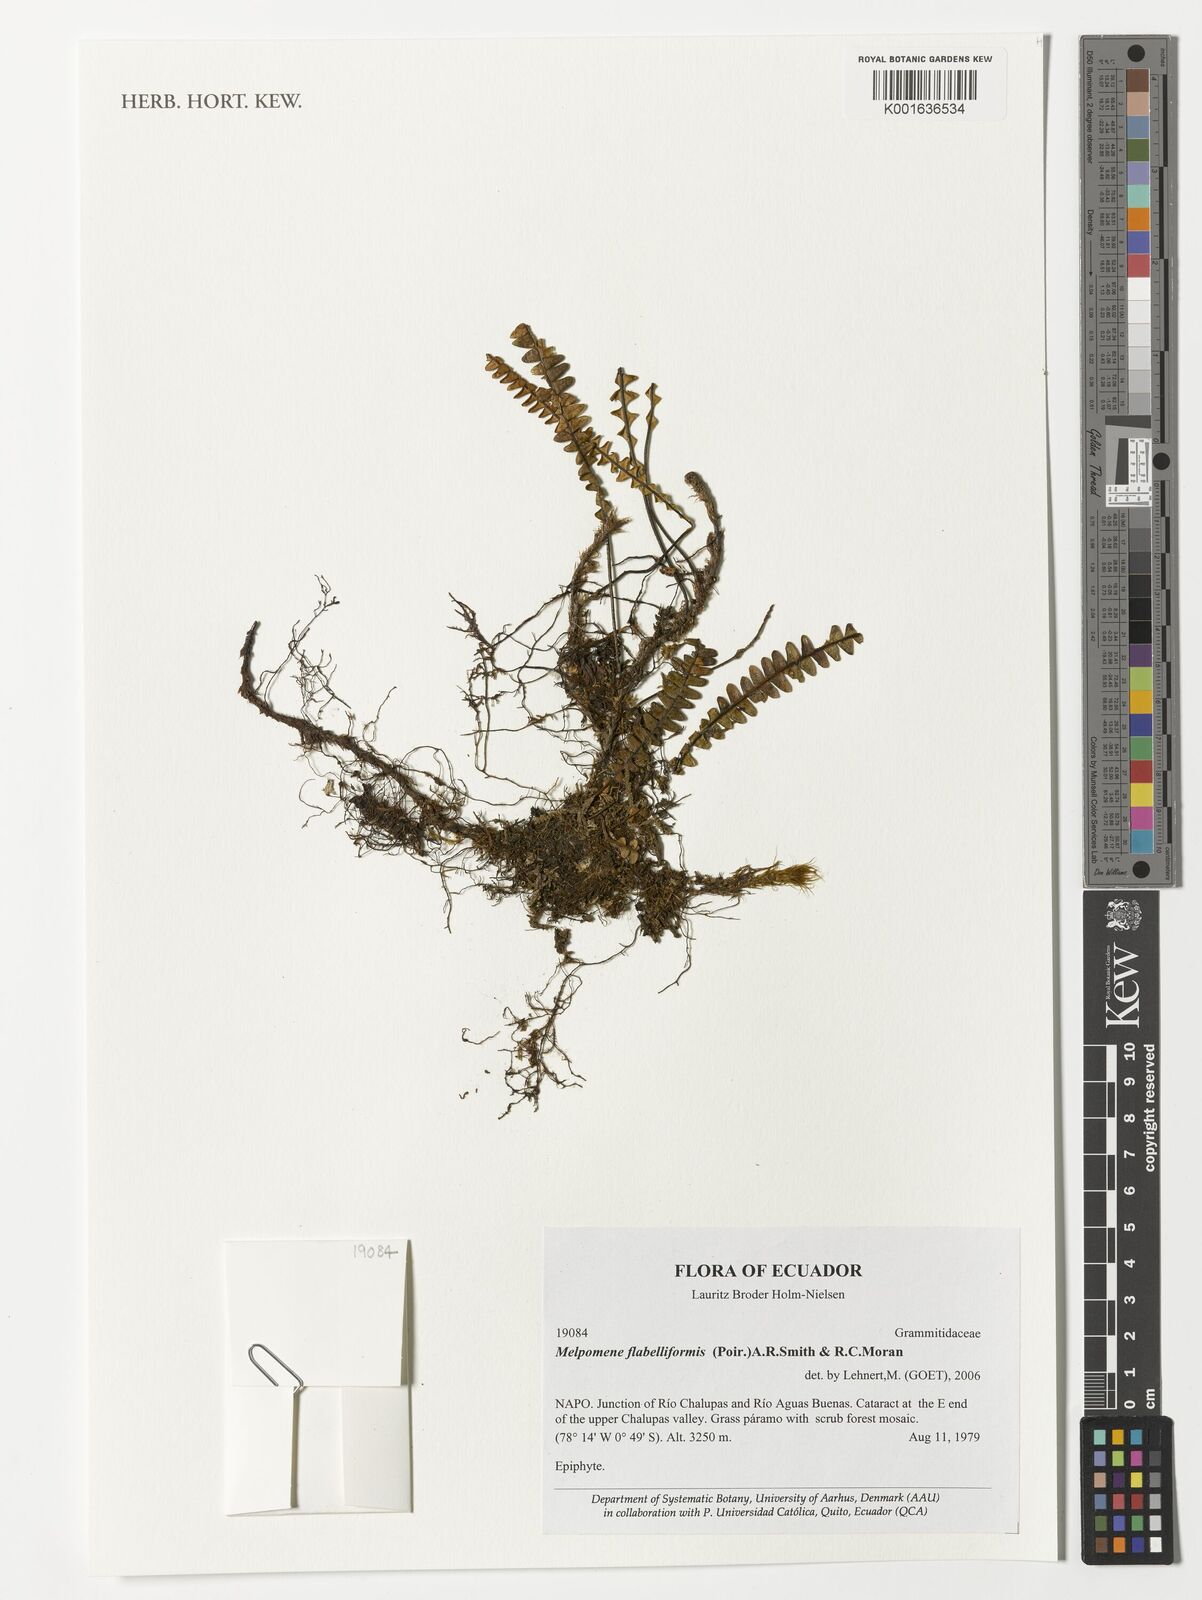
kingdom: Plantae
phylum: Tracheophyta
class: Polypodiopsida
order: Polypodiales
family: Polypodiaceae
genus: Melpomene
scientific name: Melpomene flabelliformis
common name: Fanleaf dwarf polypody
